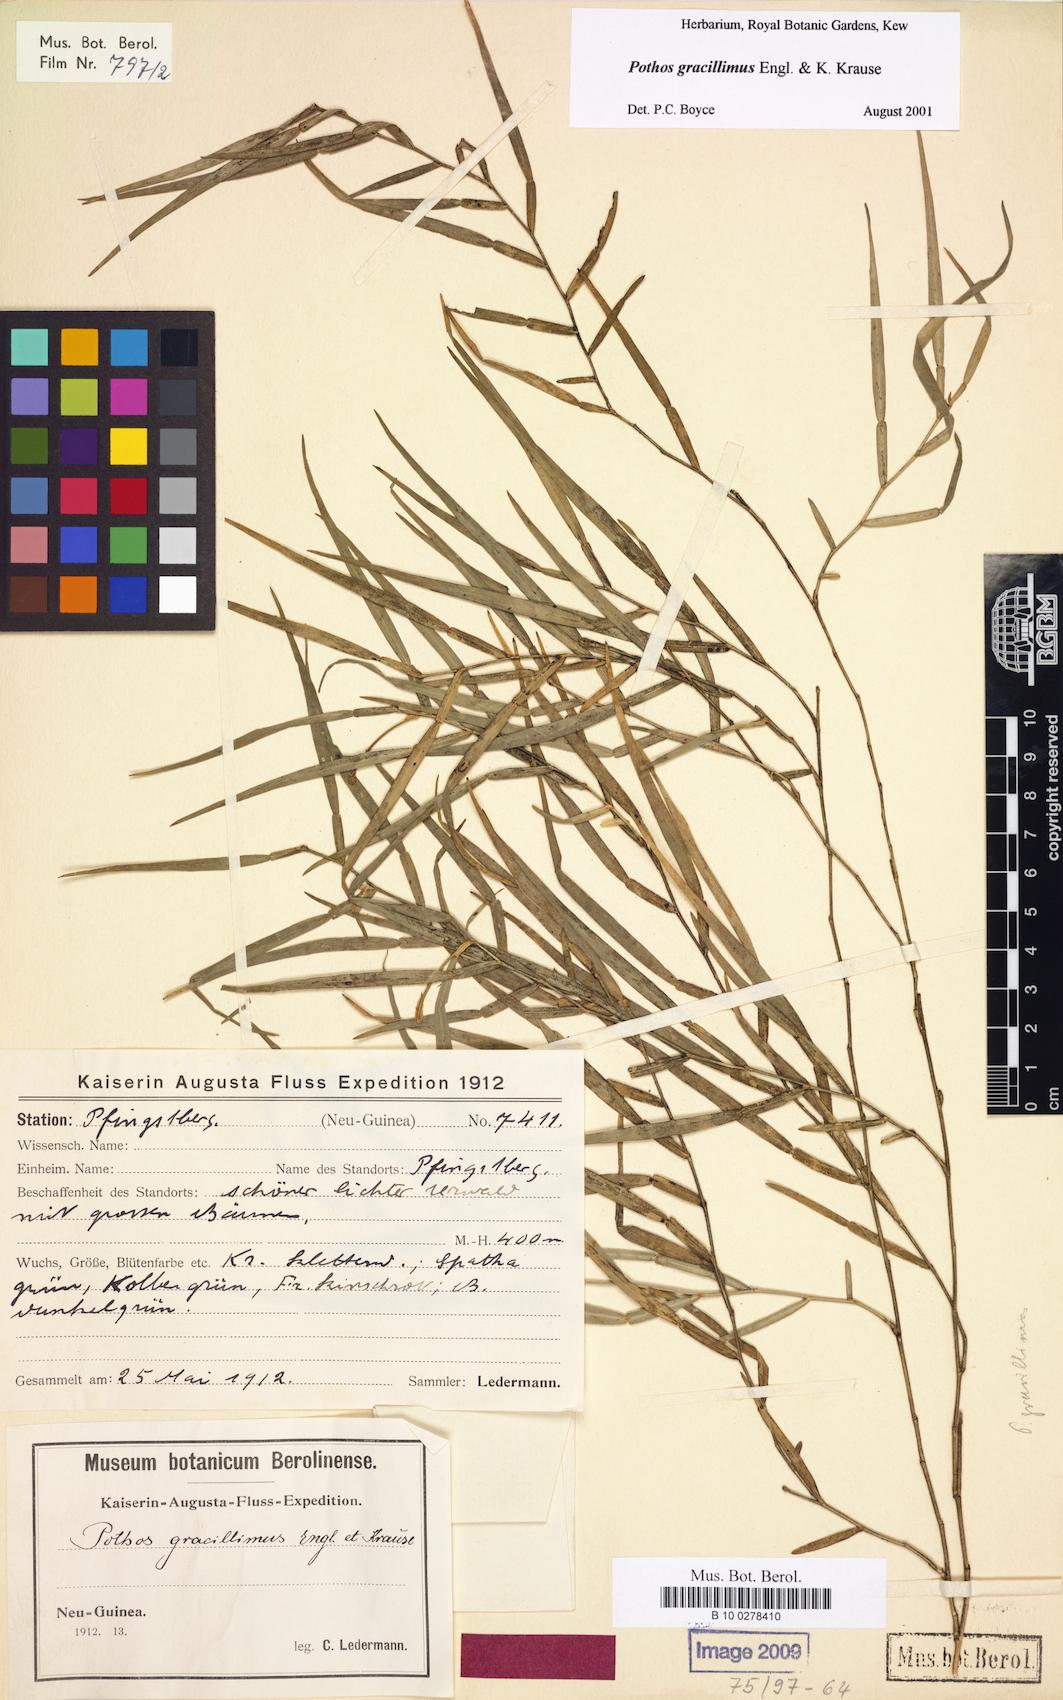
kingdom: Plantae
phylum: Tracheophyta
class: Liliopsida
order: Alismatales
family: Araceae
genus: Pothos
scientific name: Pothos gracillimus
